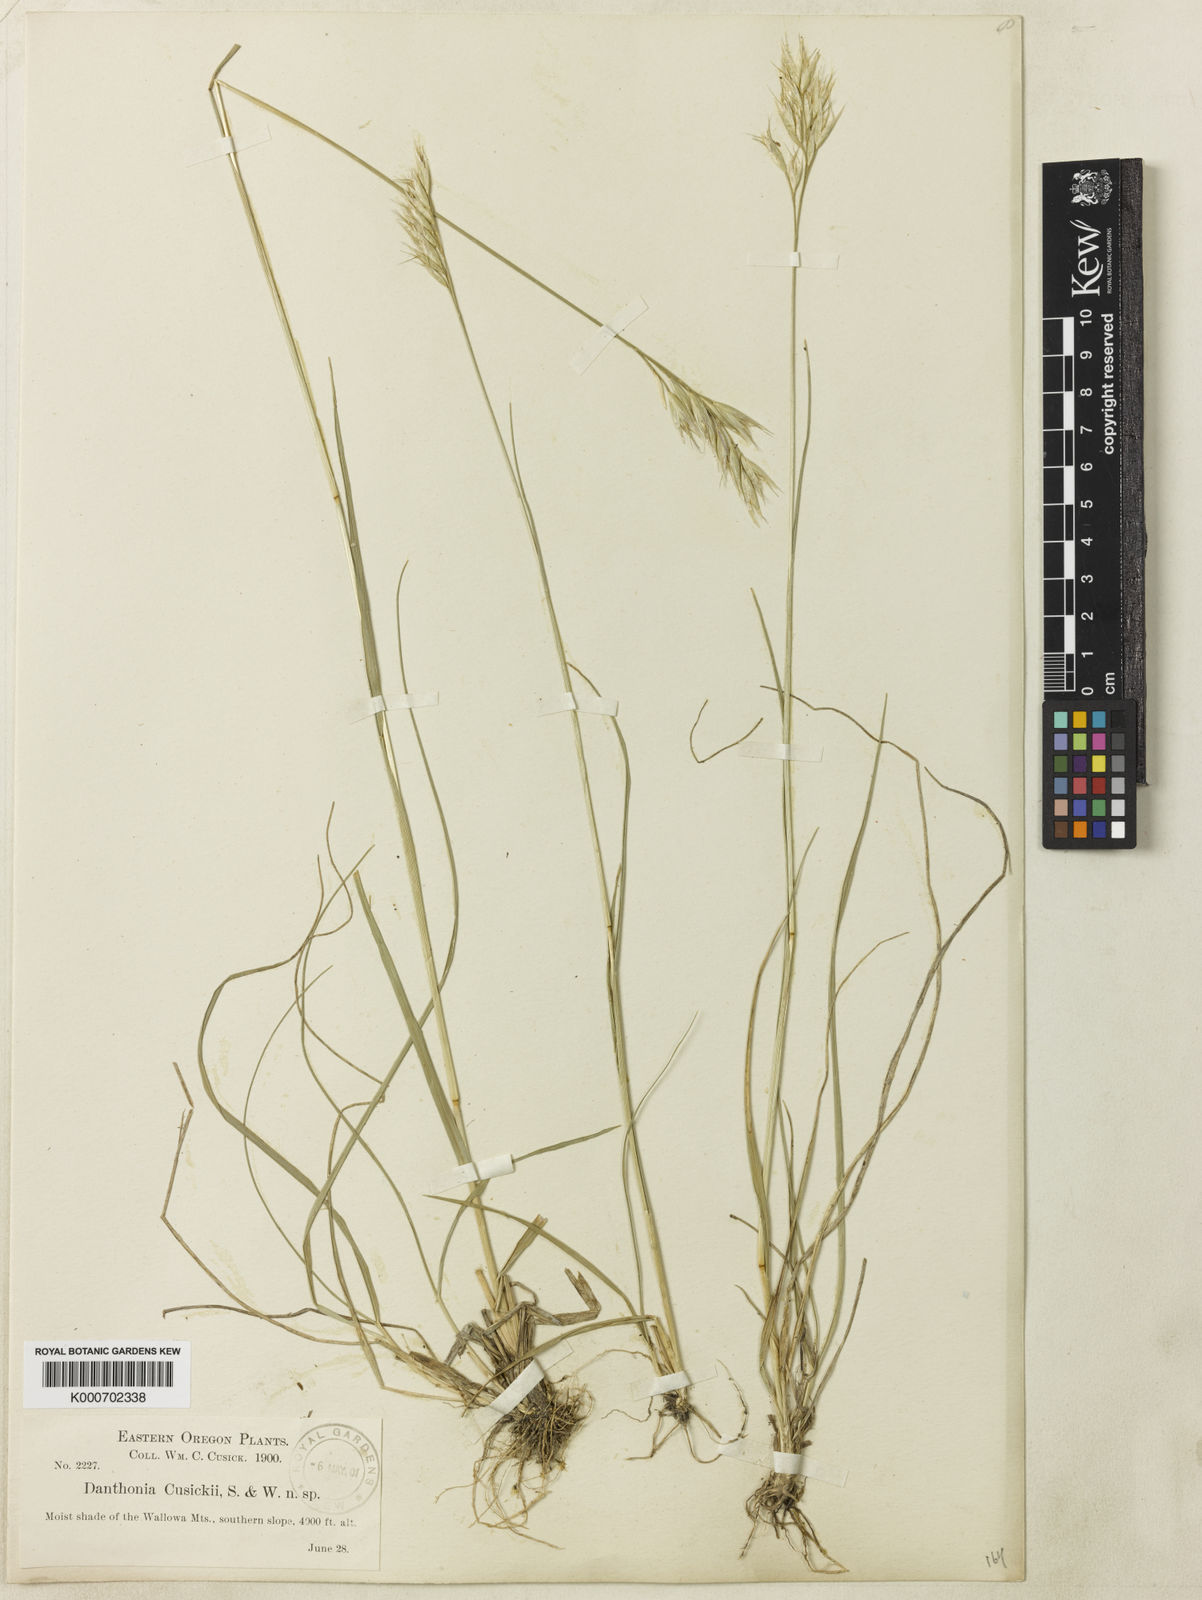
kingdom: Plantae
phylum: Tracheophyta
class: Liliopsida
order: Poales
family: Poaceae
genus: Danthonia
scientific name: Danthonia intermedia
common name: Intermediate oat grass
